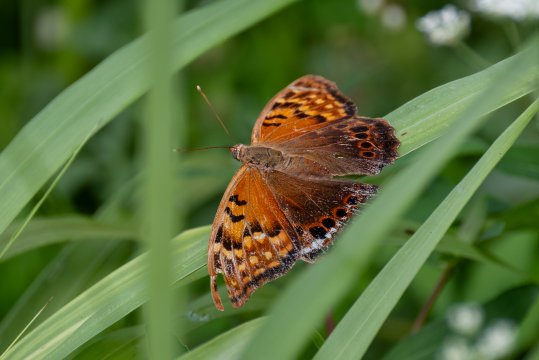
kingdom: Animalia
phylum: Arthropoda
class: Insecta
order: Lepidoptera
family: Nymphalidae
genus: Asterocampa
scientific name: Asterocampa clyton
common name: Tawny Emperor
